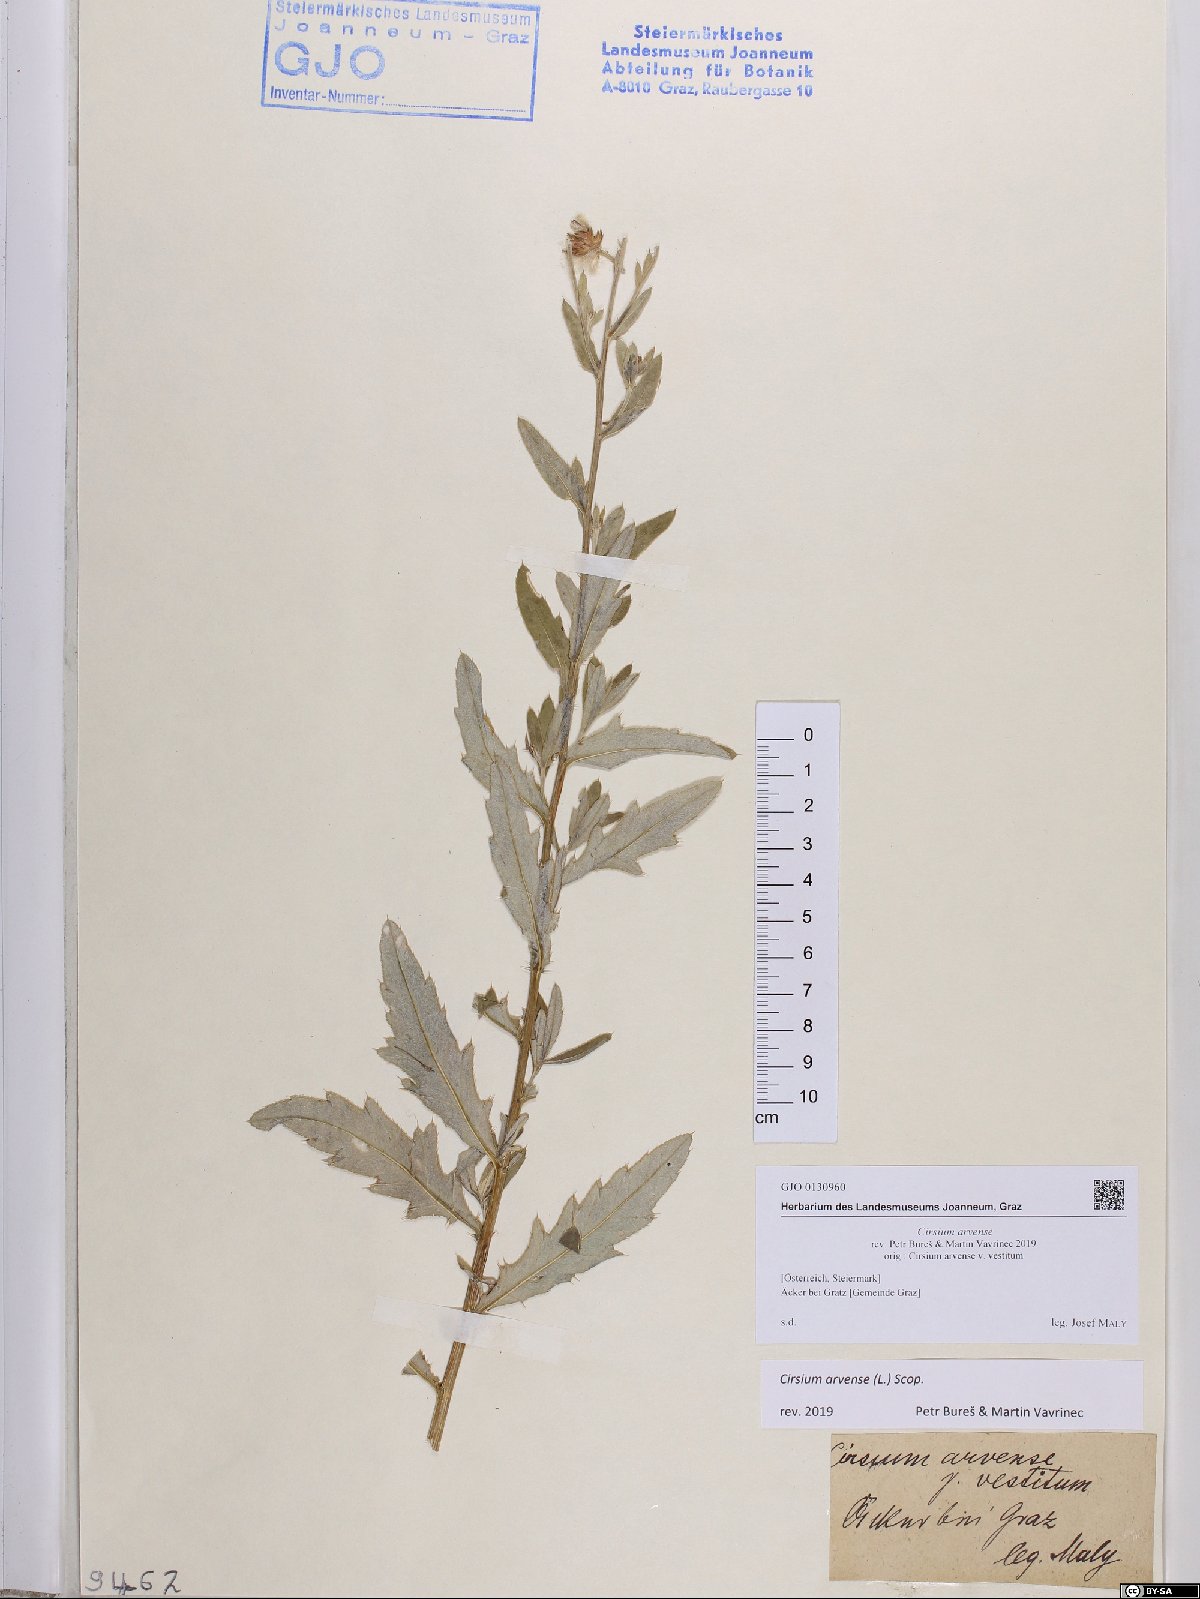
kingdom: Plantae
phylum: Tracheophyta
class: Magnoliopsida
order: Asterales
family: Asteraceae
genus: Cirsium
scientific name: Cirsium arvense
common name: Creeping thistle
